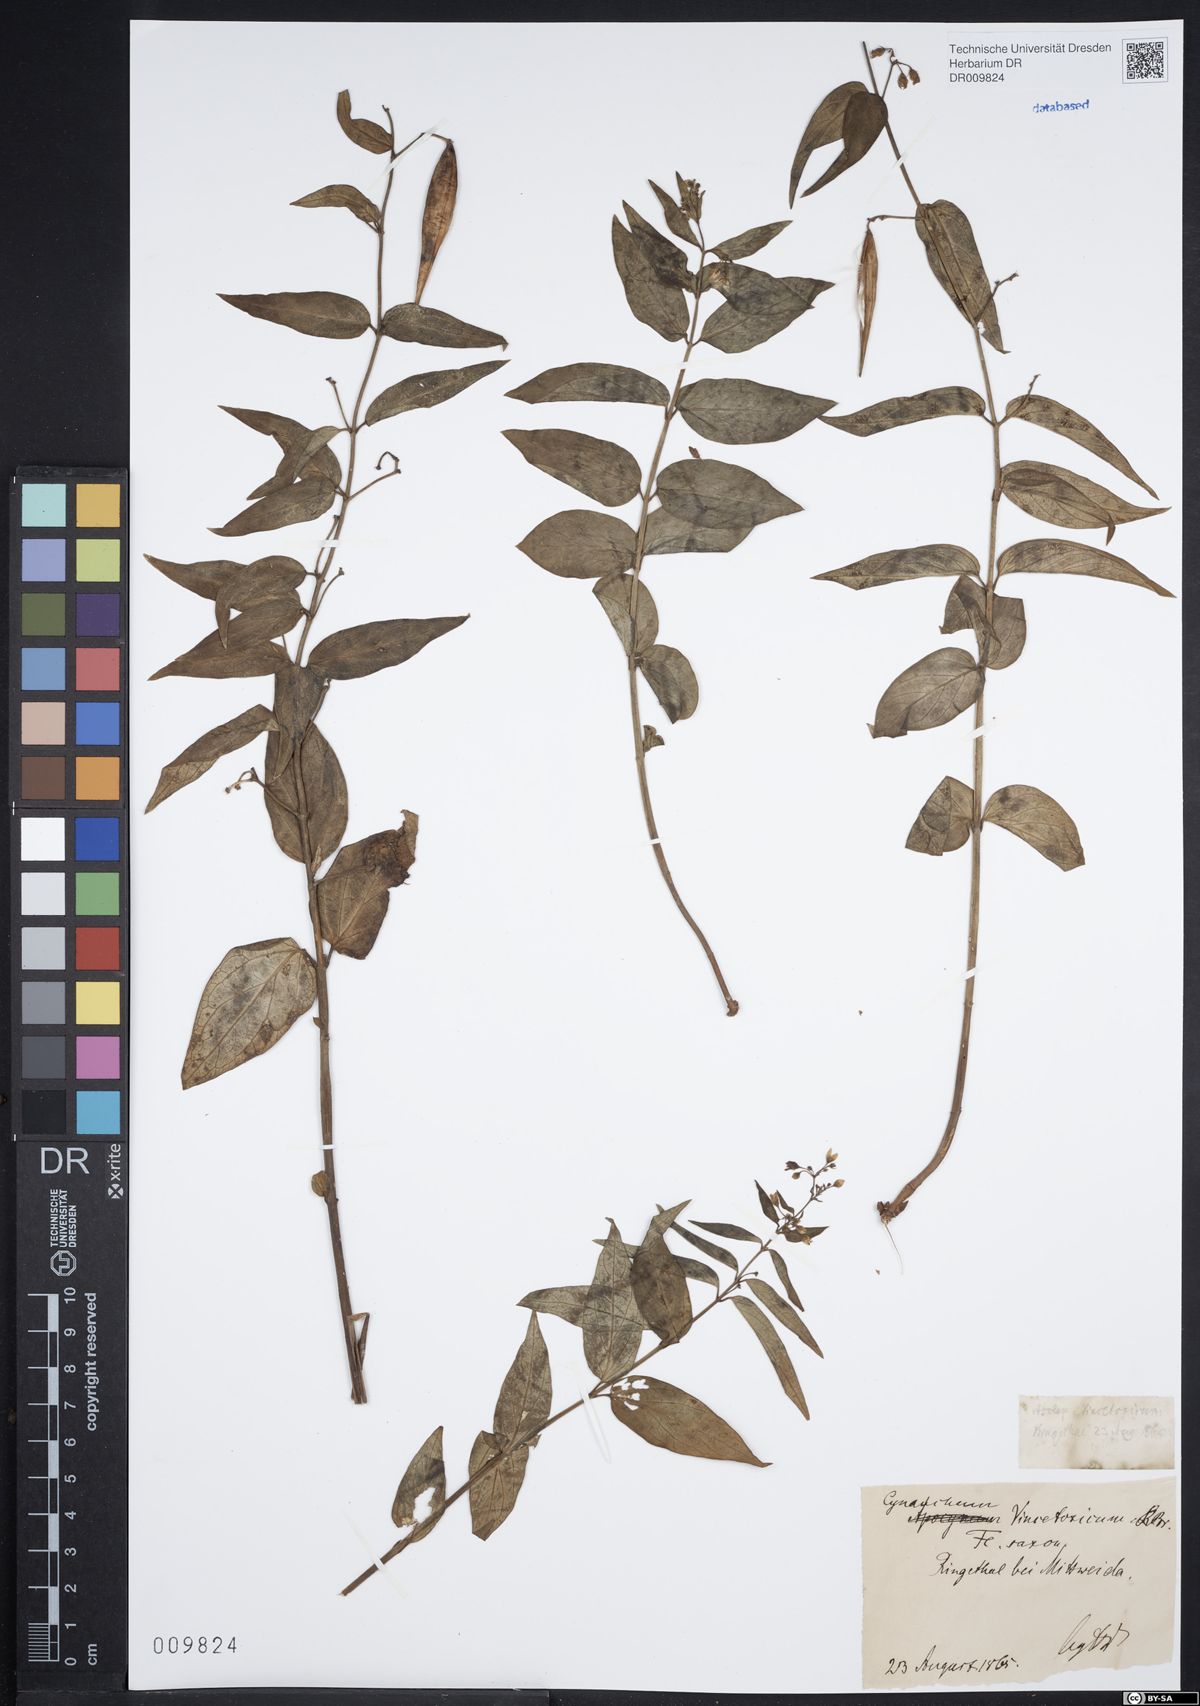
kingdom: Plantae
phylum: Tracheophyta
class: Magnoliopsida
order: Gentianales
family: Apocynaceae
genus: Vincetoxicum
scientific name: Vincetoxicum hirundinaria
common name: White swallowwort
